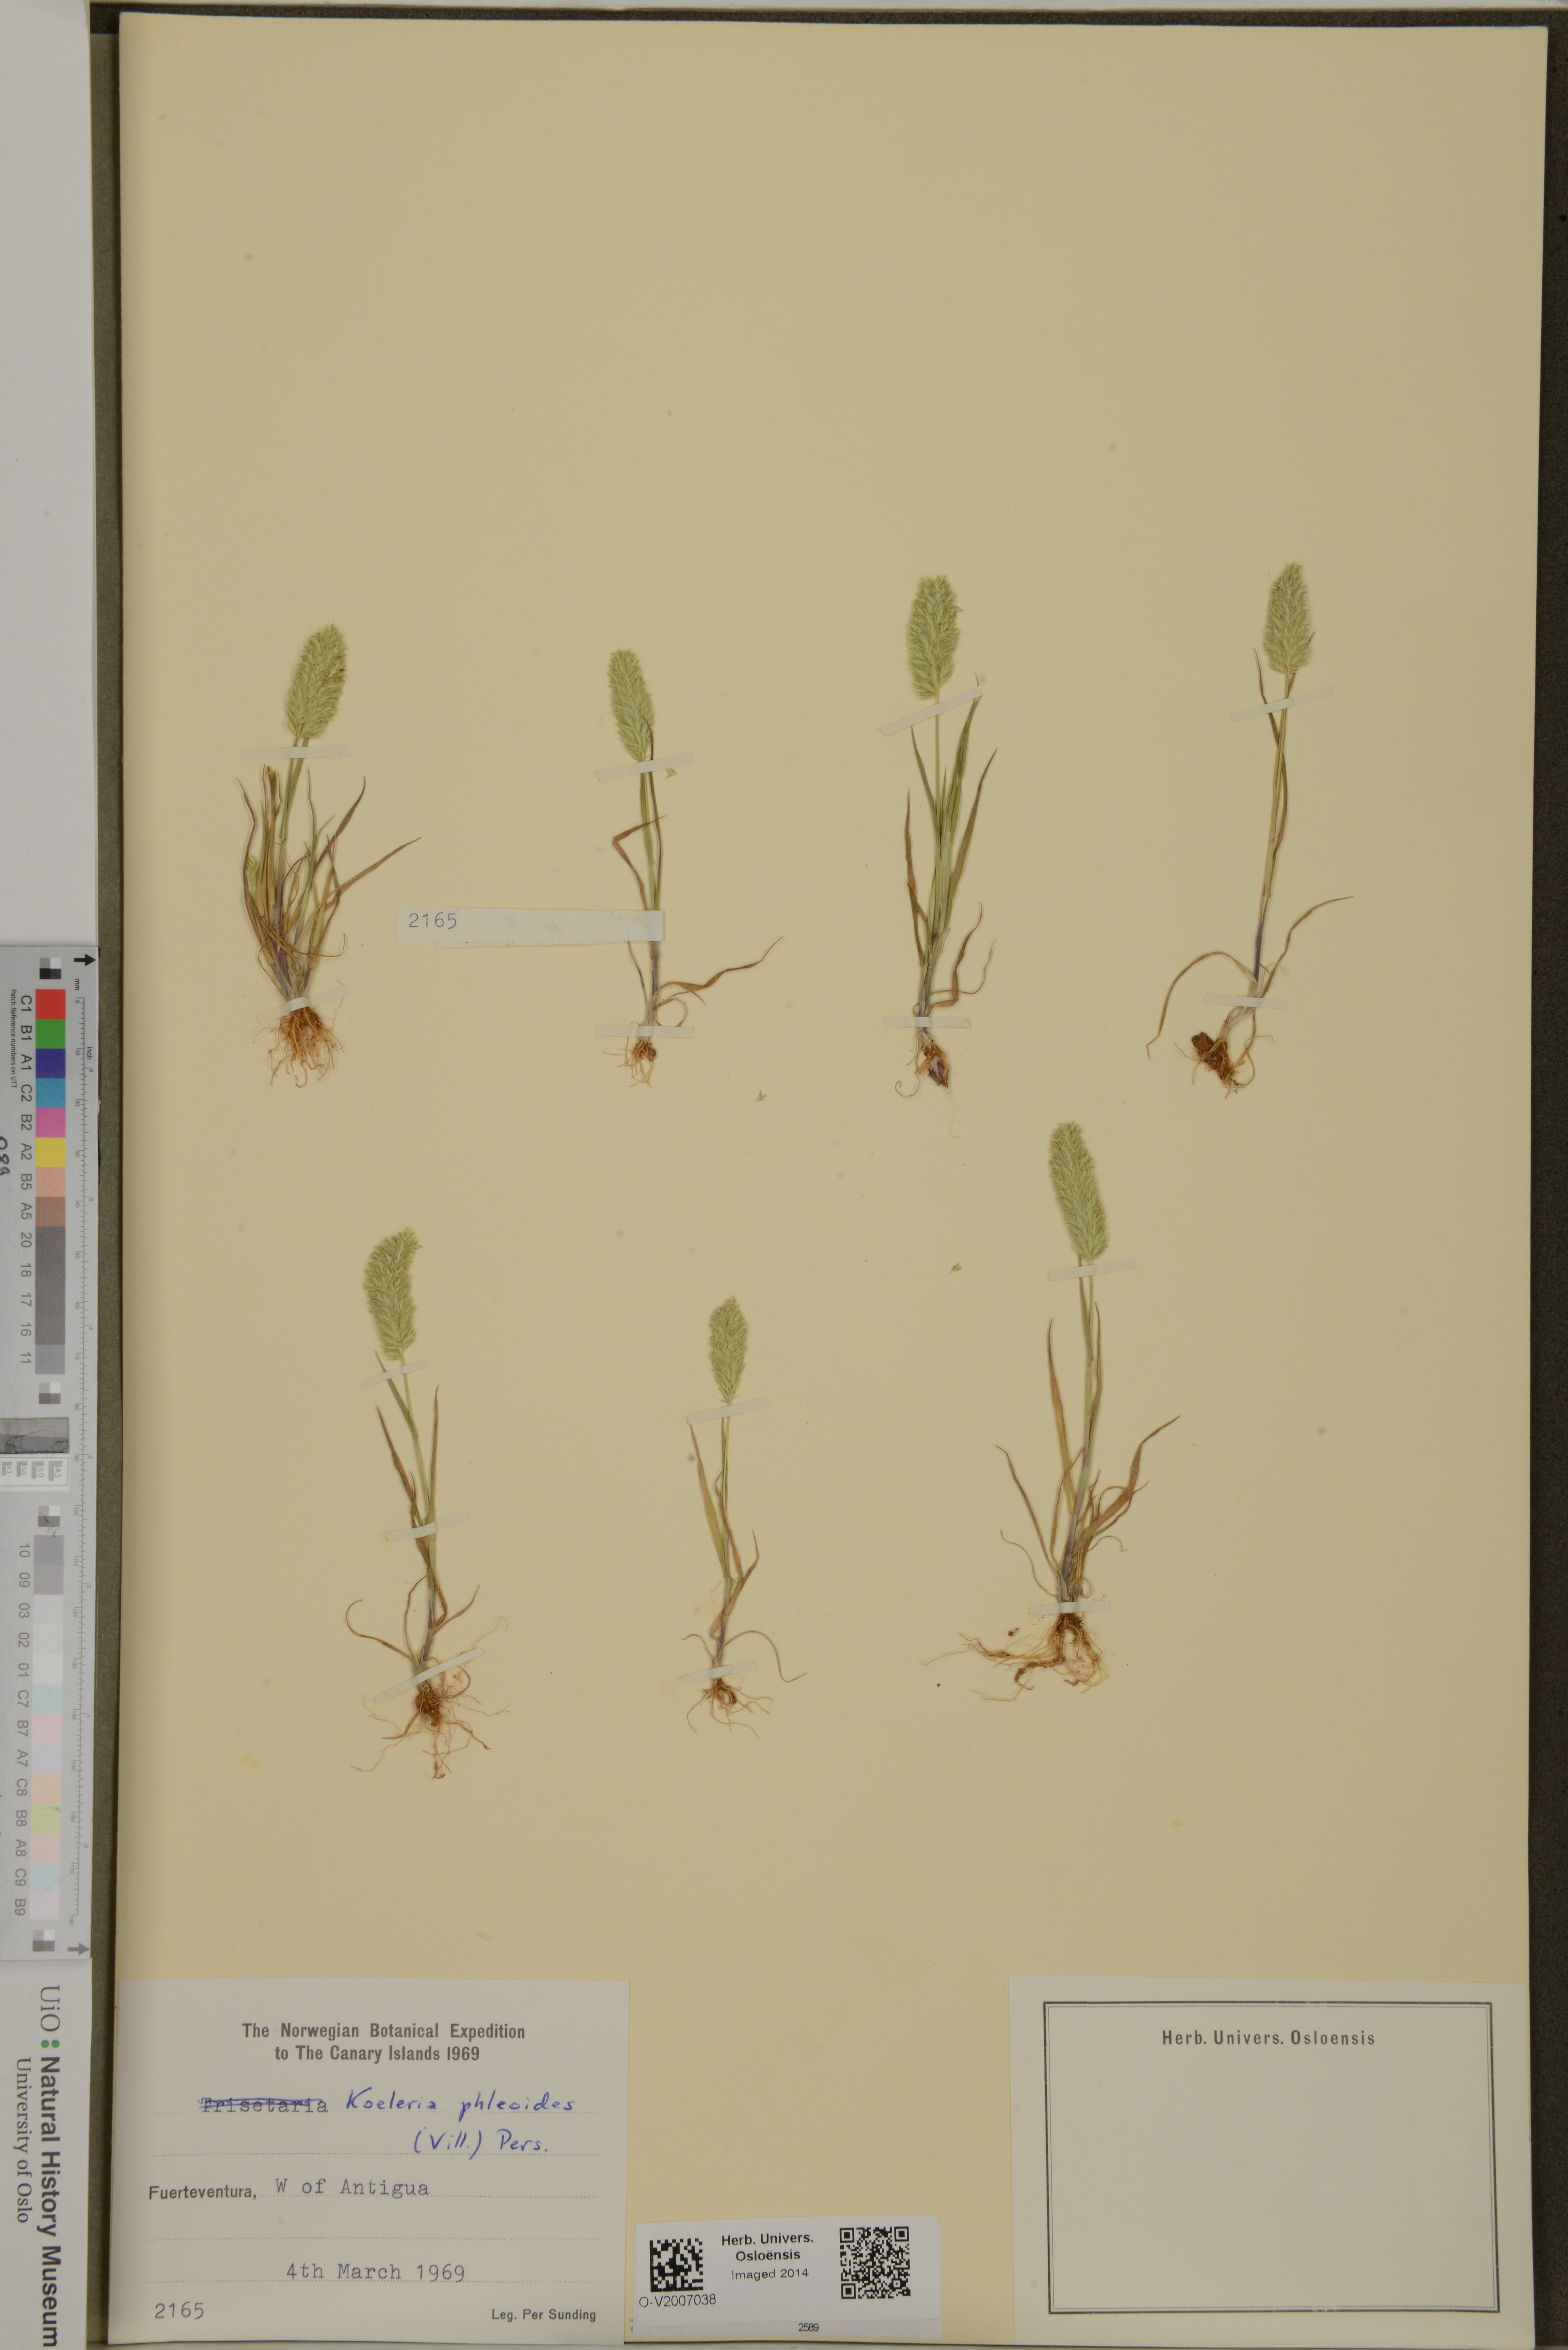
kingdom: Plantae
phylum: Tracheophyta
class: Liliopsida
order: Poales
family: Poaceae
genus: Rostraria
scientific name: Rostraria cristata
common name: Mediterranean hair-grass
